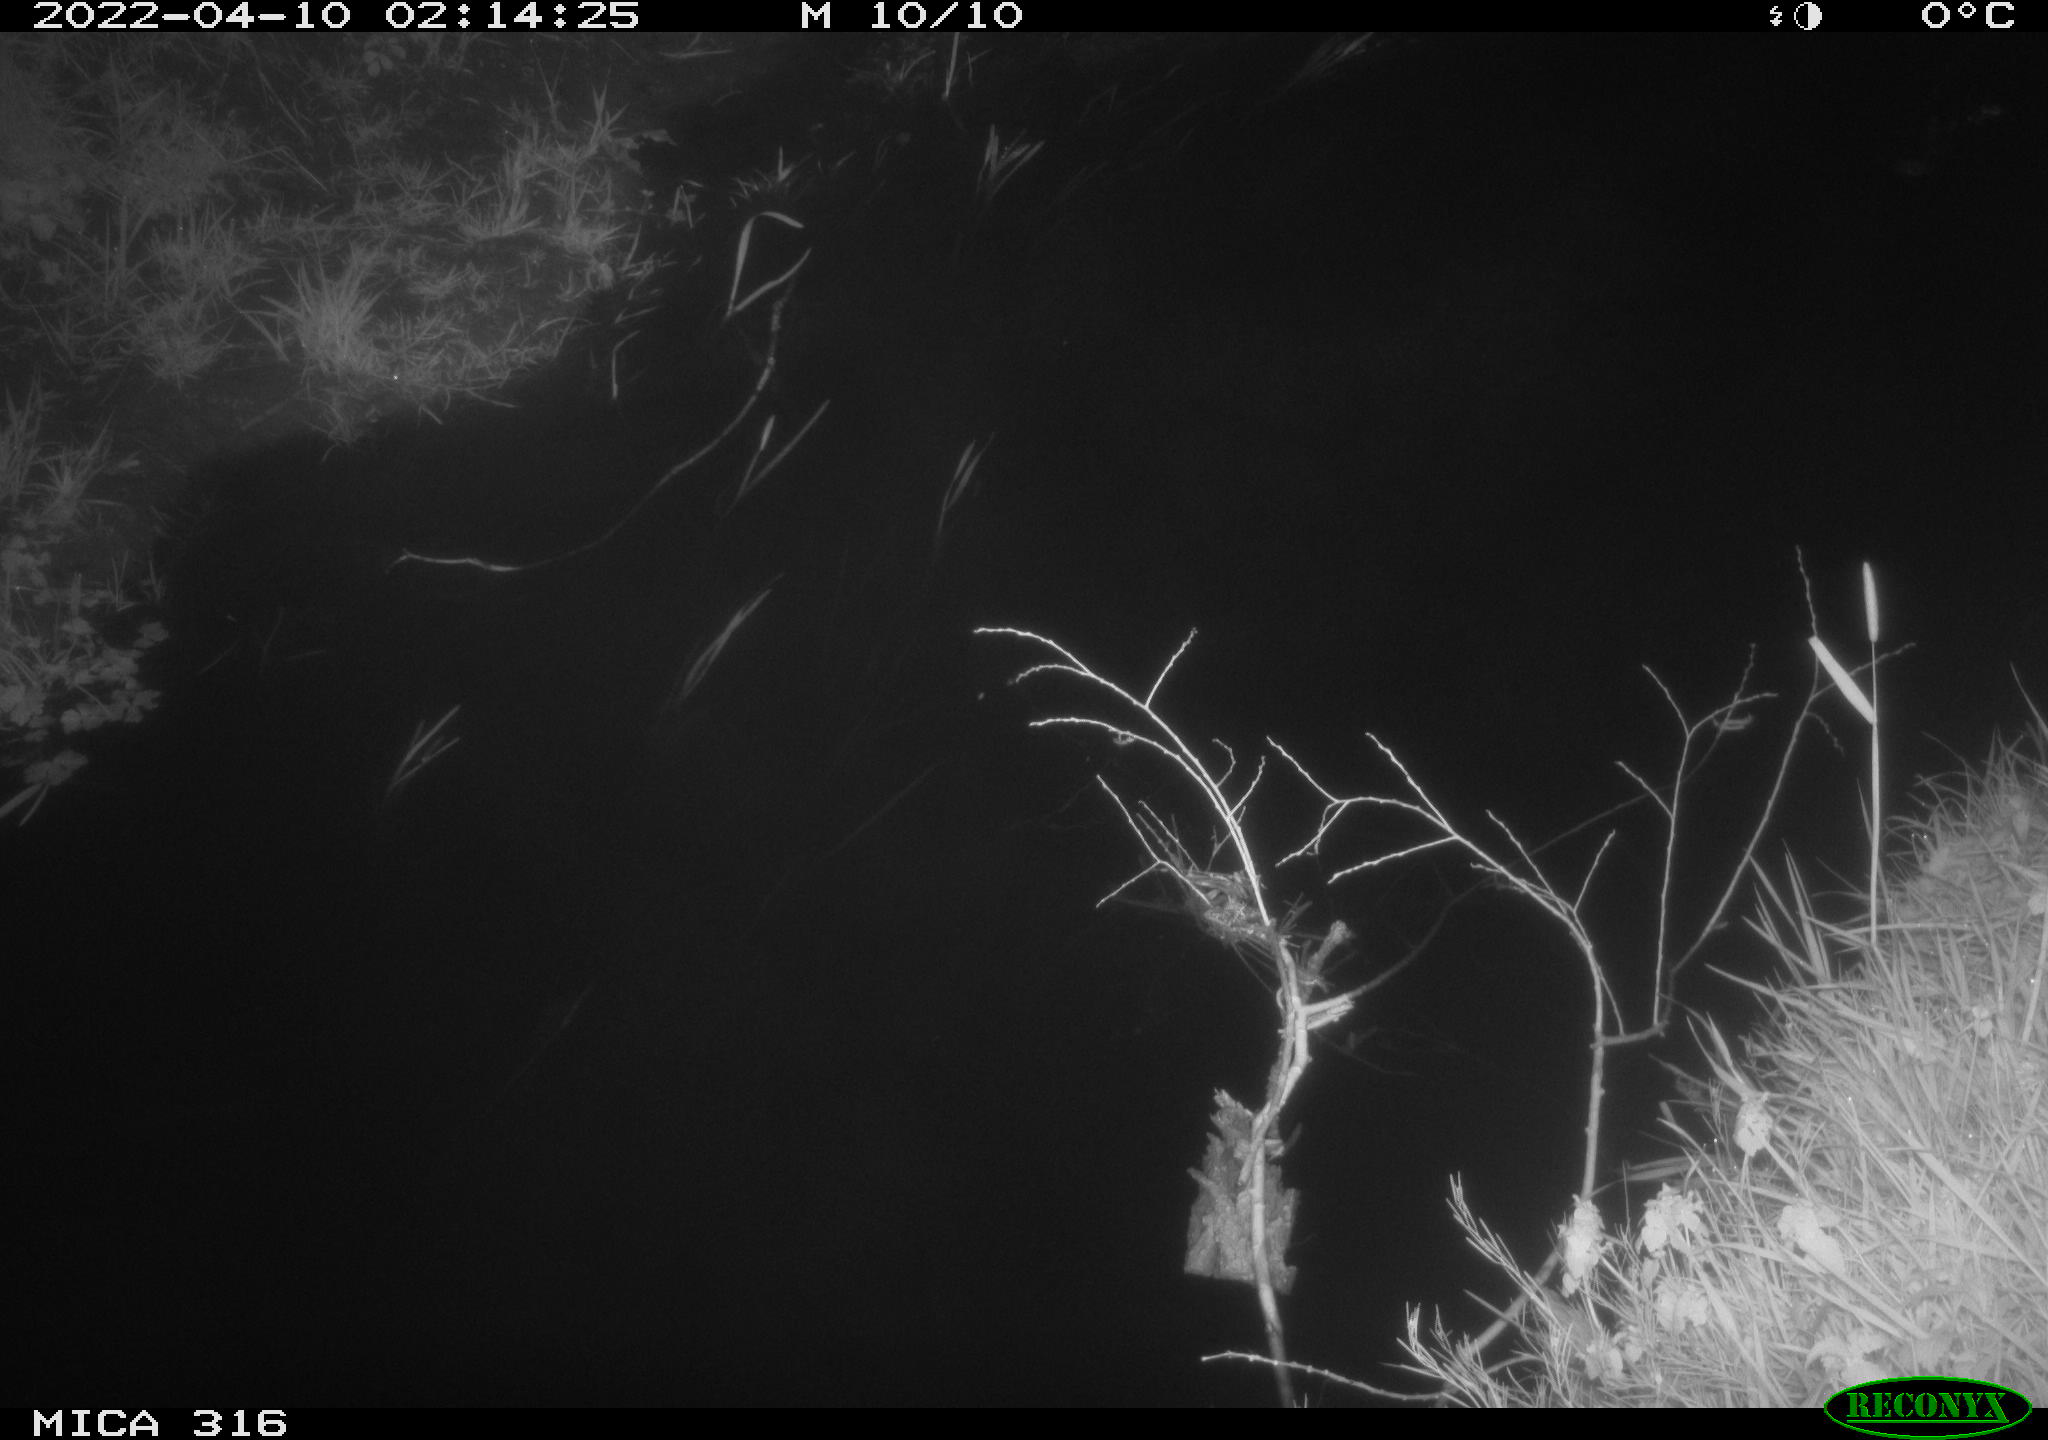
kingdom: Animalia
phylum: Chordata
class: Aves
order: Anseriformes
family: Anatidae
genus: Anas
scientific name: Anas platyrhynchos
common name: Mallard
